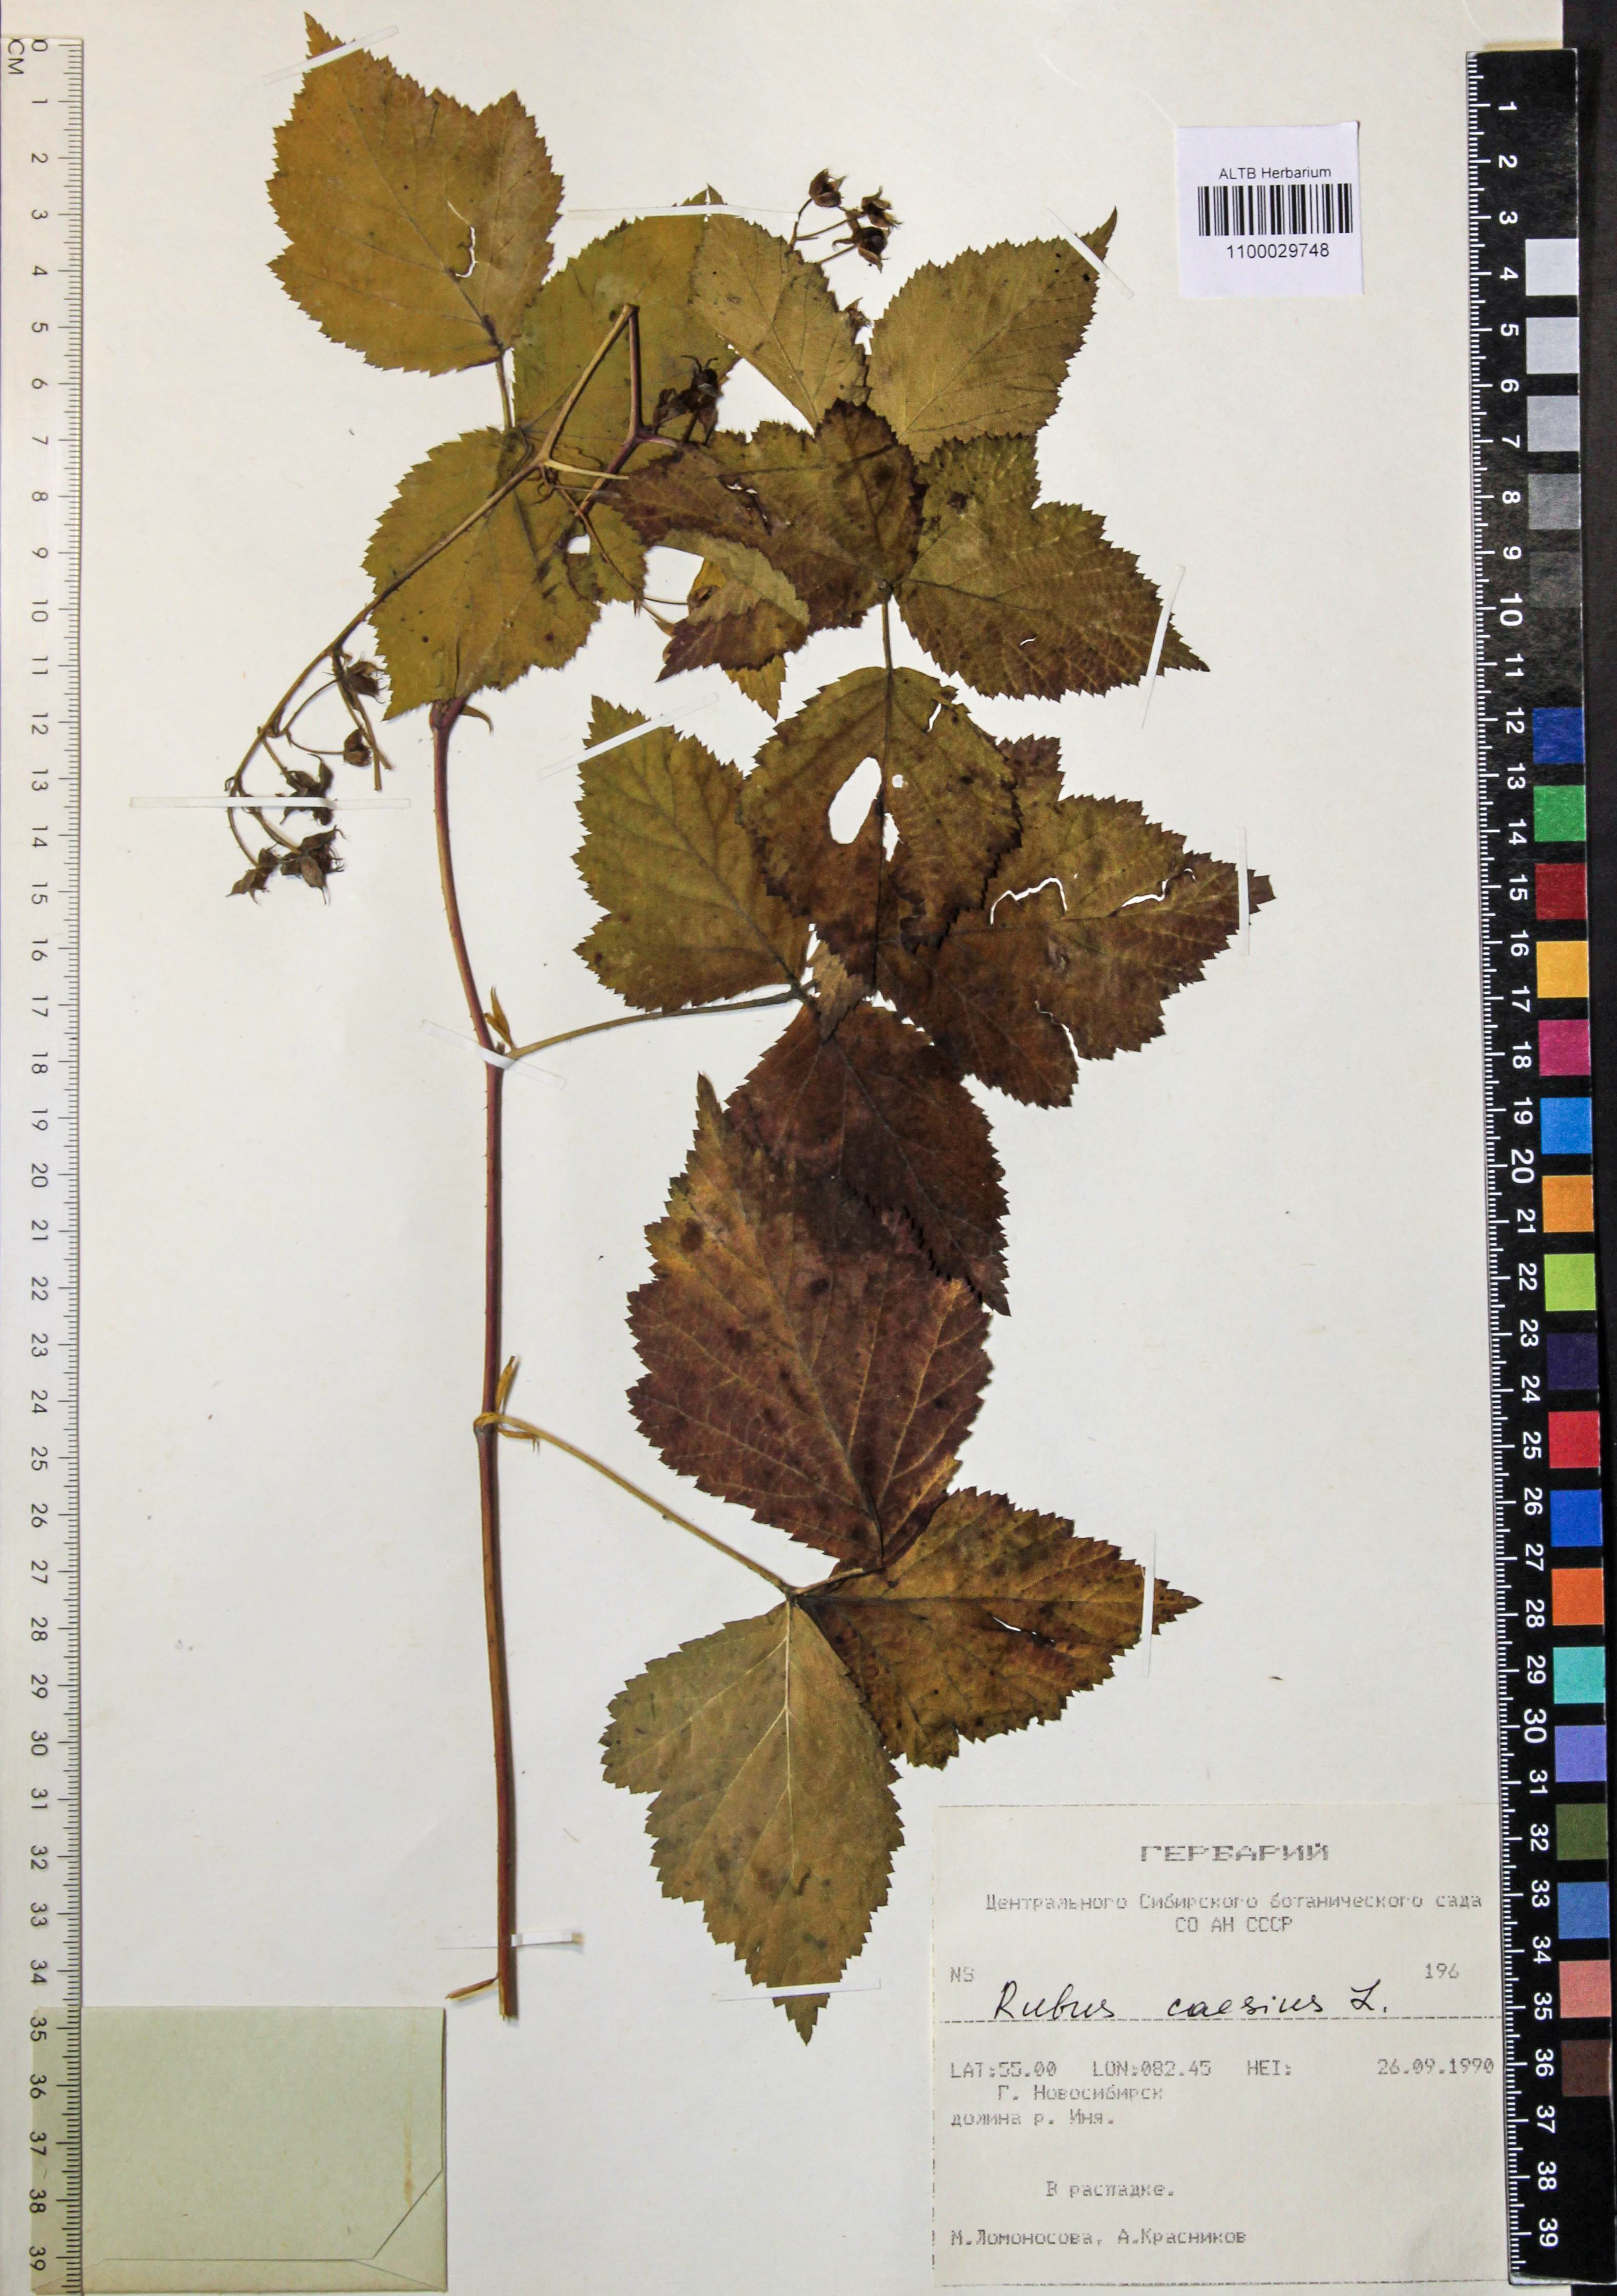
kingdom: Plantae
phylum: Tracheophyta
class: Magnoliopsida
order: Rosales
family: Rosaceae
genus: Rubus
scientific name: Rubus caesius
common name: Dewberry
